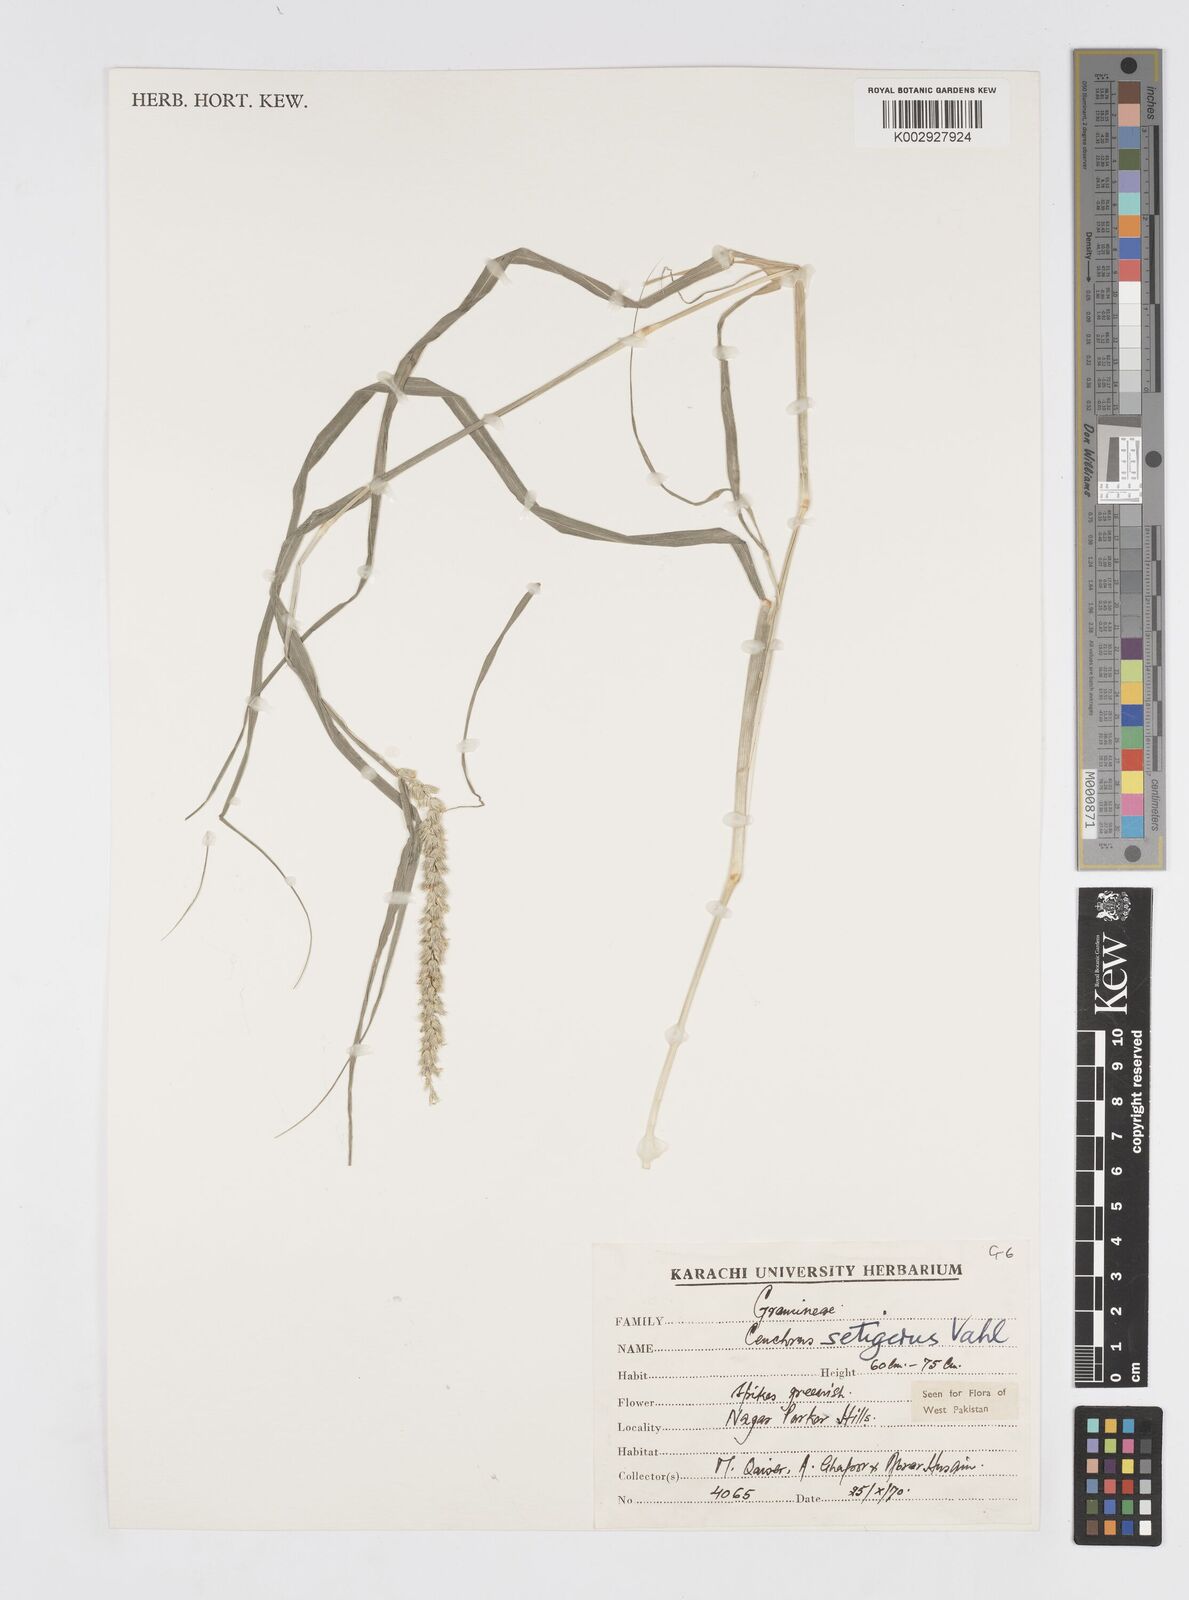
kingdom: Plantae
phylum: Tracheophyta
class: Liliopsida
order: Poales
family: Poaceae
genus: Cenchrus
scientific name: Cenchrus setigerus
